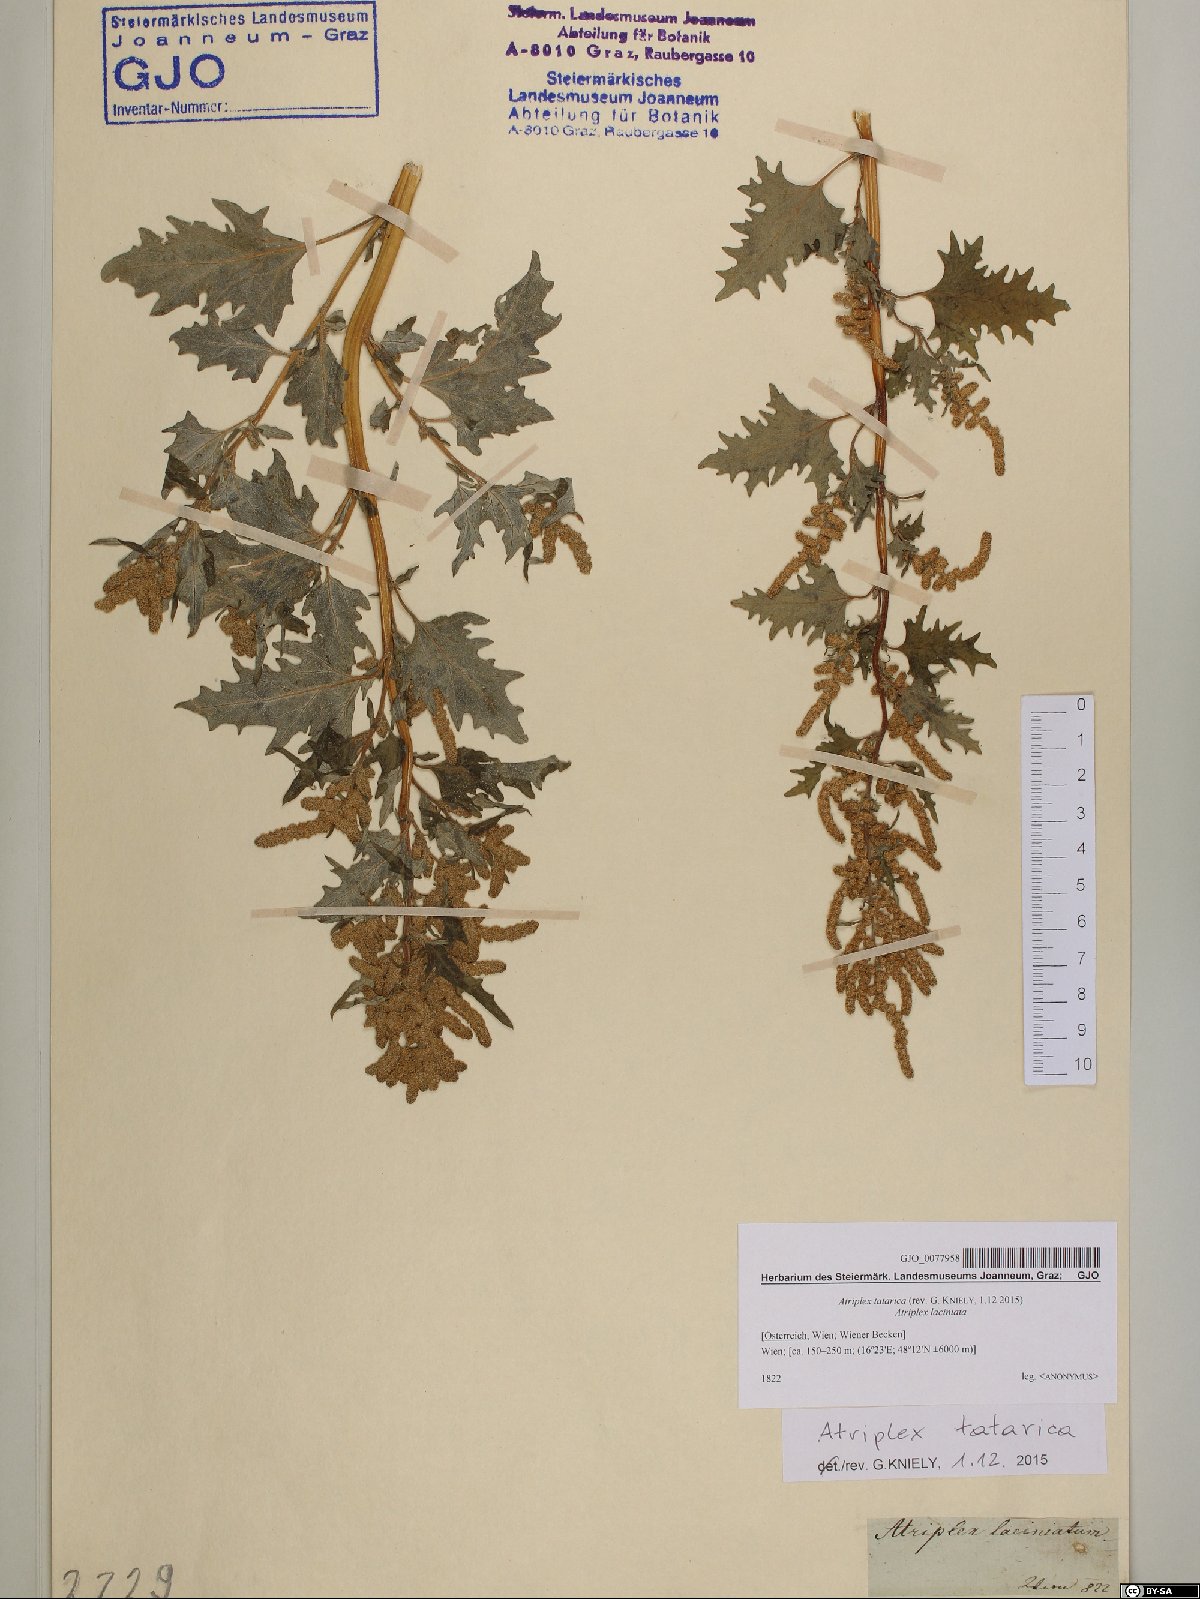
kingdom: Plantae
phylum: Tracheophyta
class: Magnoliopsida
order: Caryophyllales
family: Amaranthaceae
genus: Atriplex
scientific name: Atriplex tatarica
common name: Tatarian orache
